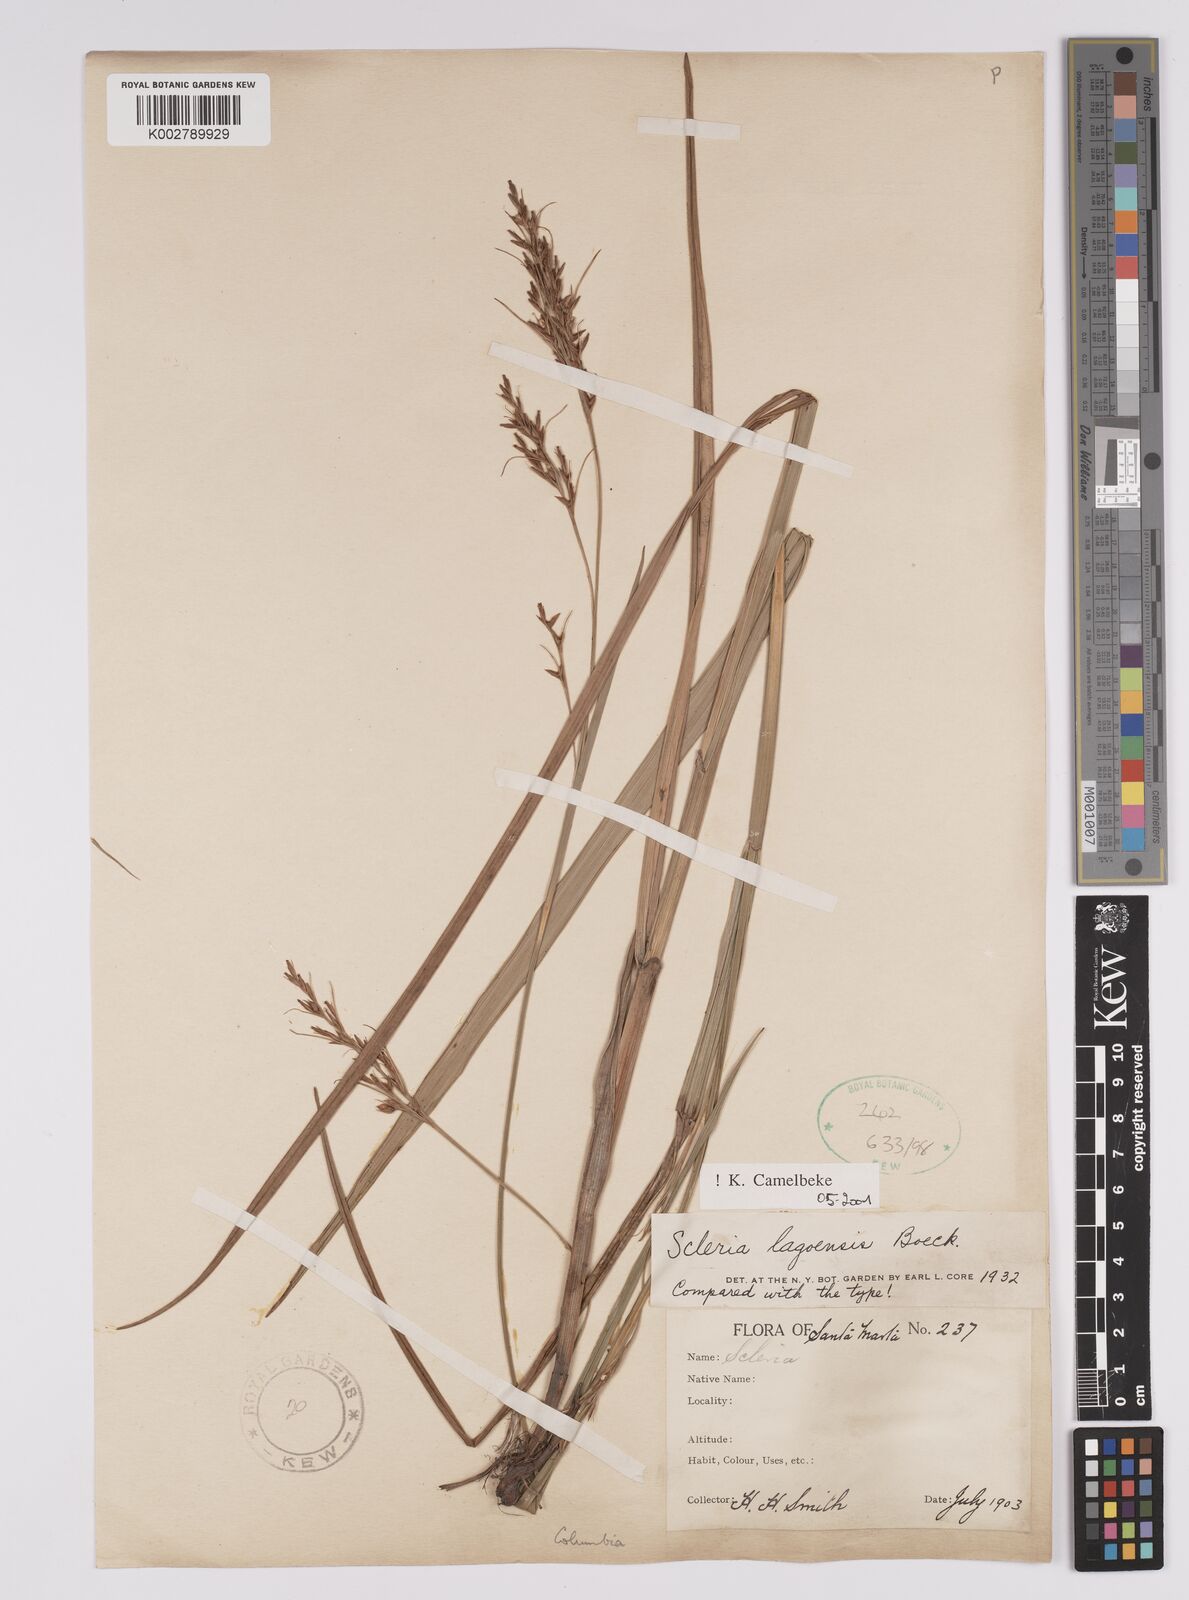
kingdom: Plantae
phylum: Tracheophyta
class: Liliopsida
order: Poales
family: Cyperaceae
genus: Scleria
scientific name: Scleria lagoensis
